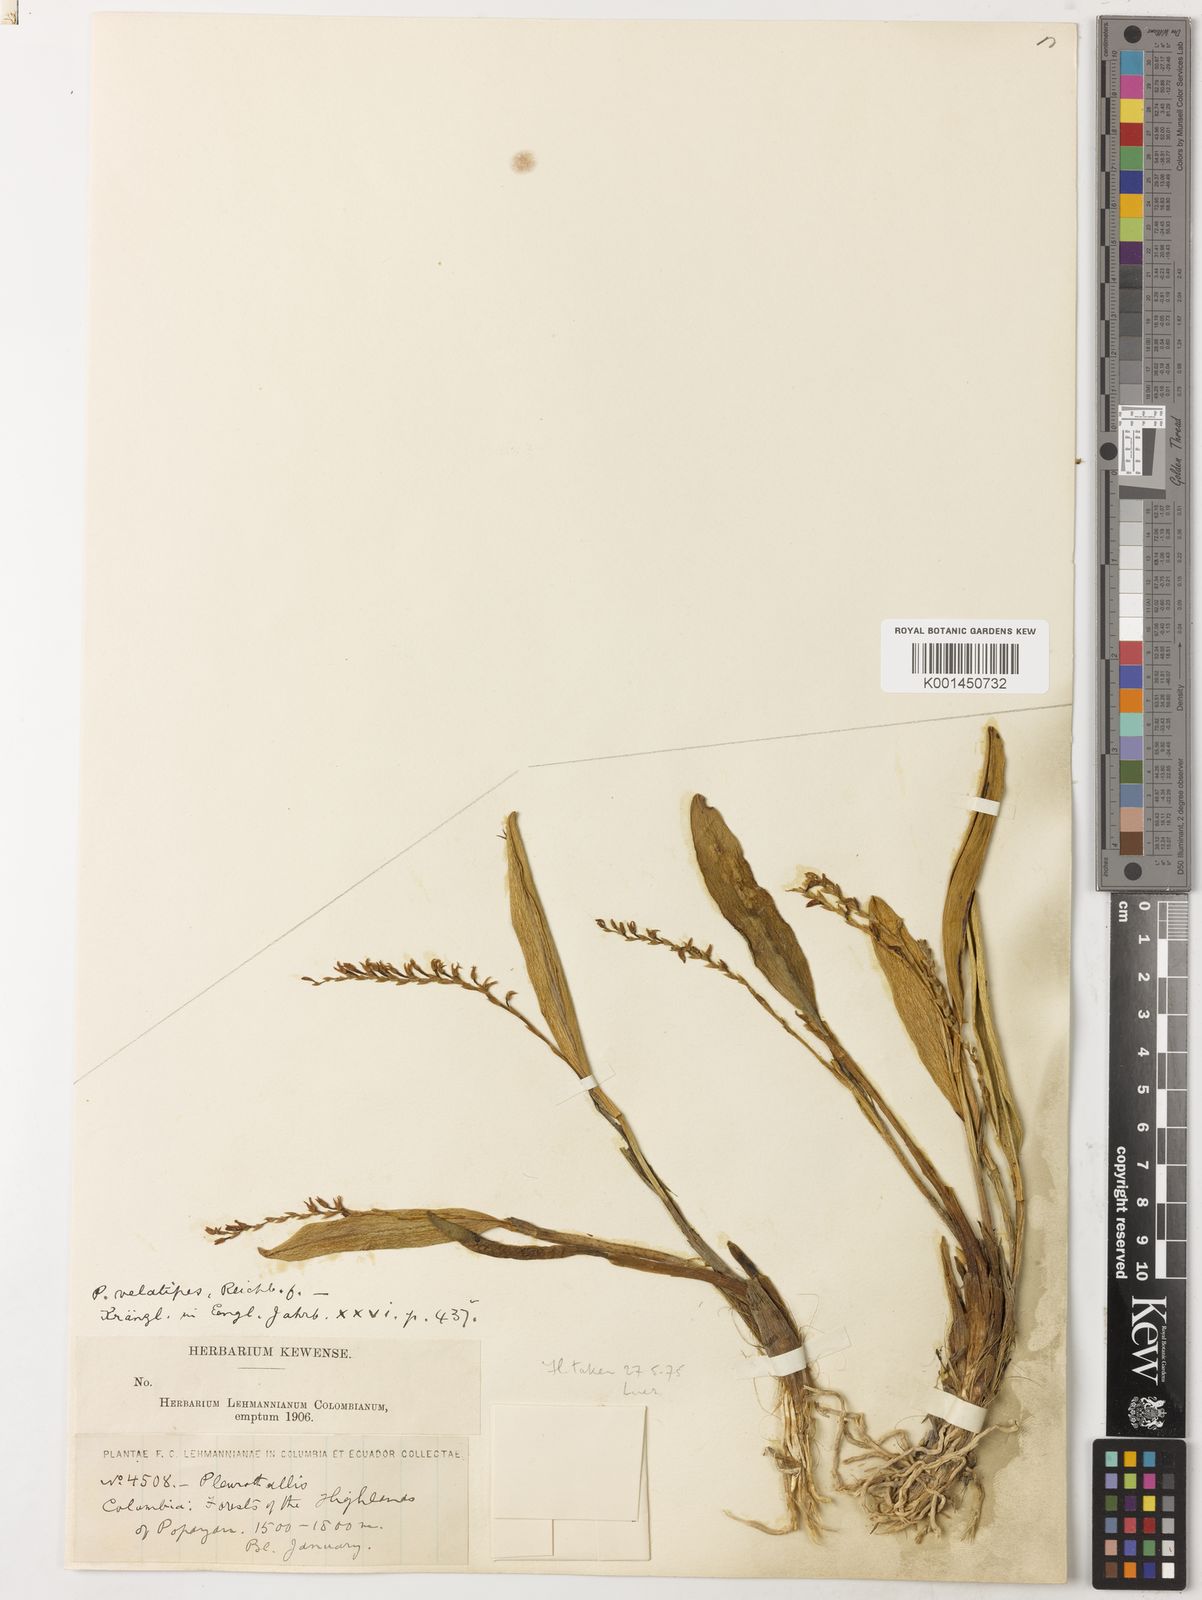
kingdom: Plantae
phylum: Tracheophyta
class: Liliopsida
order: Asparagales
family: Orchidaceae
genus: Stelis
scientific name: Stelis velaticaulis
